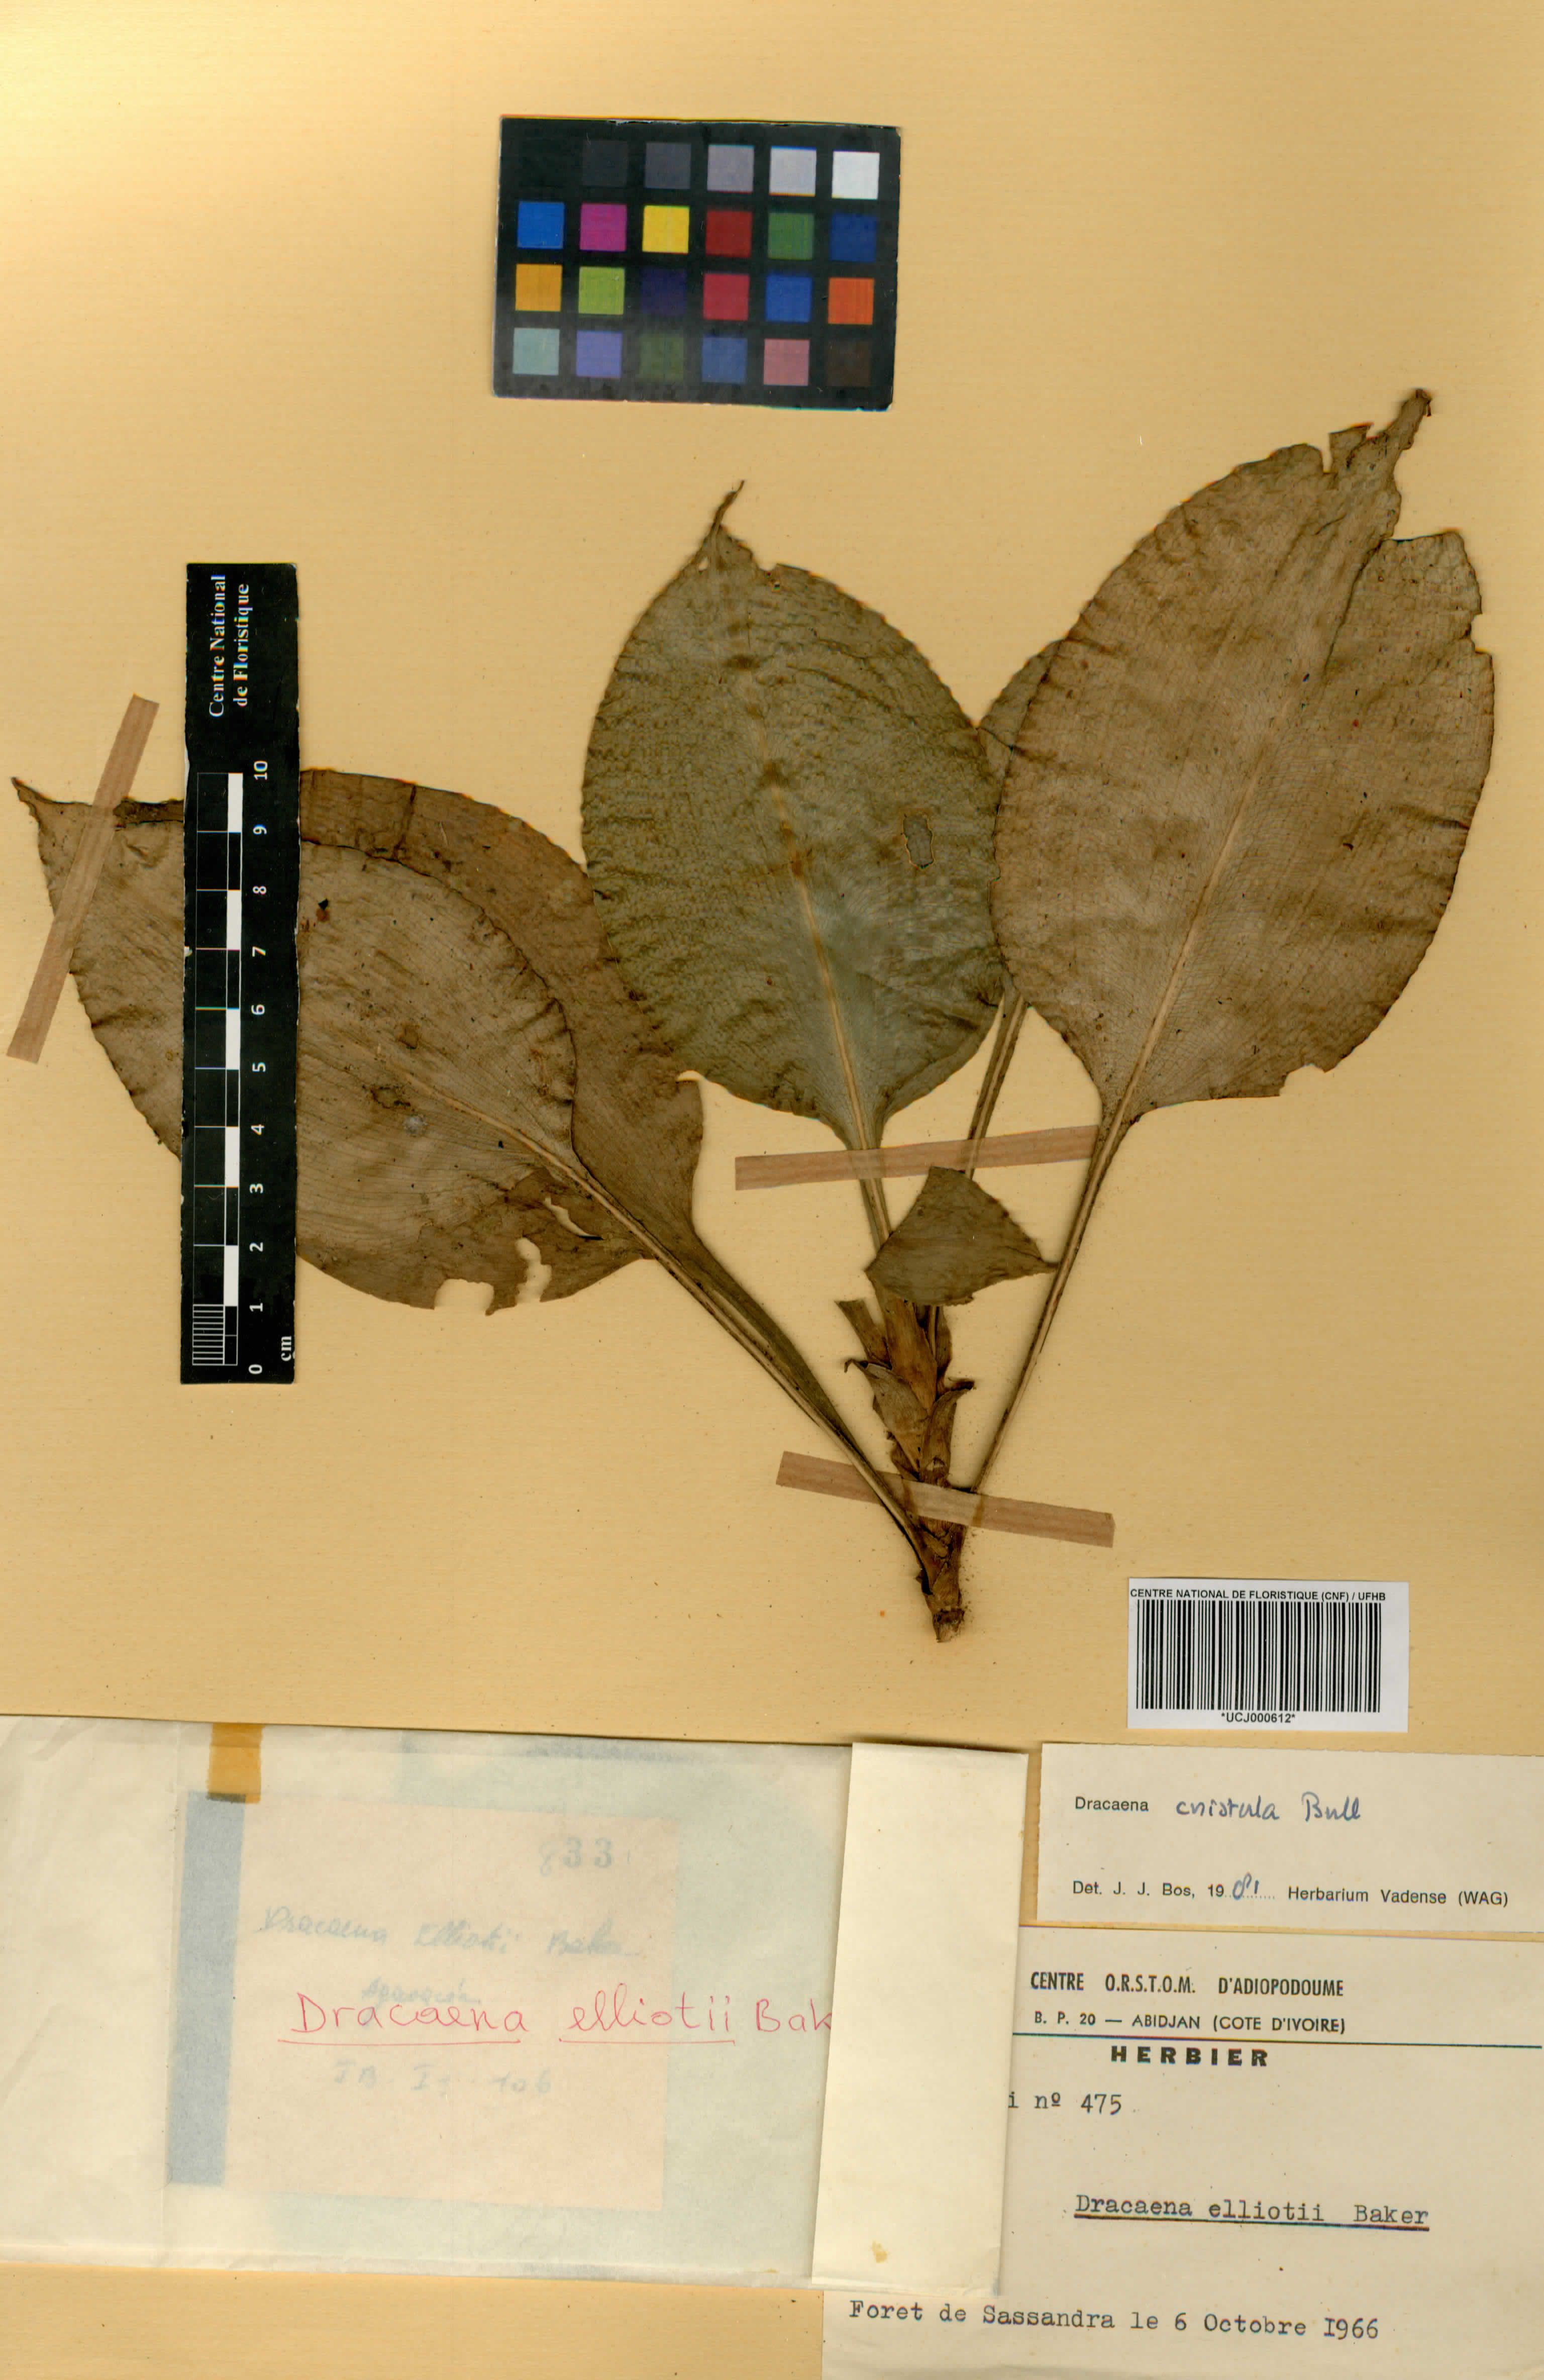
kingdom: Plantae
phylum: Tracheophyta
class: Liliopsida
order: Asparagales
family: Asparagaceae
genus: Dracaena
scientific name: Dracaena cristula
